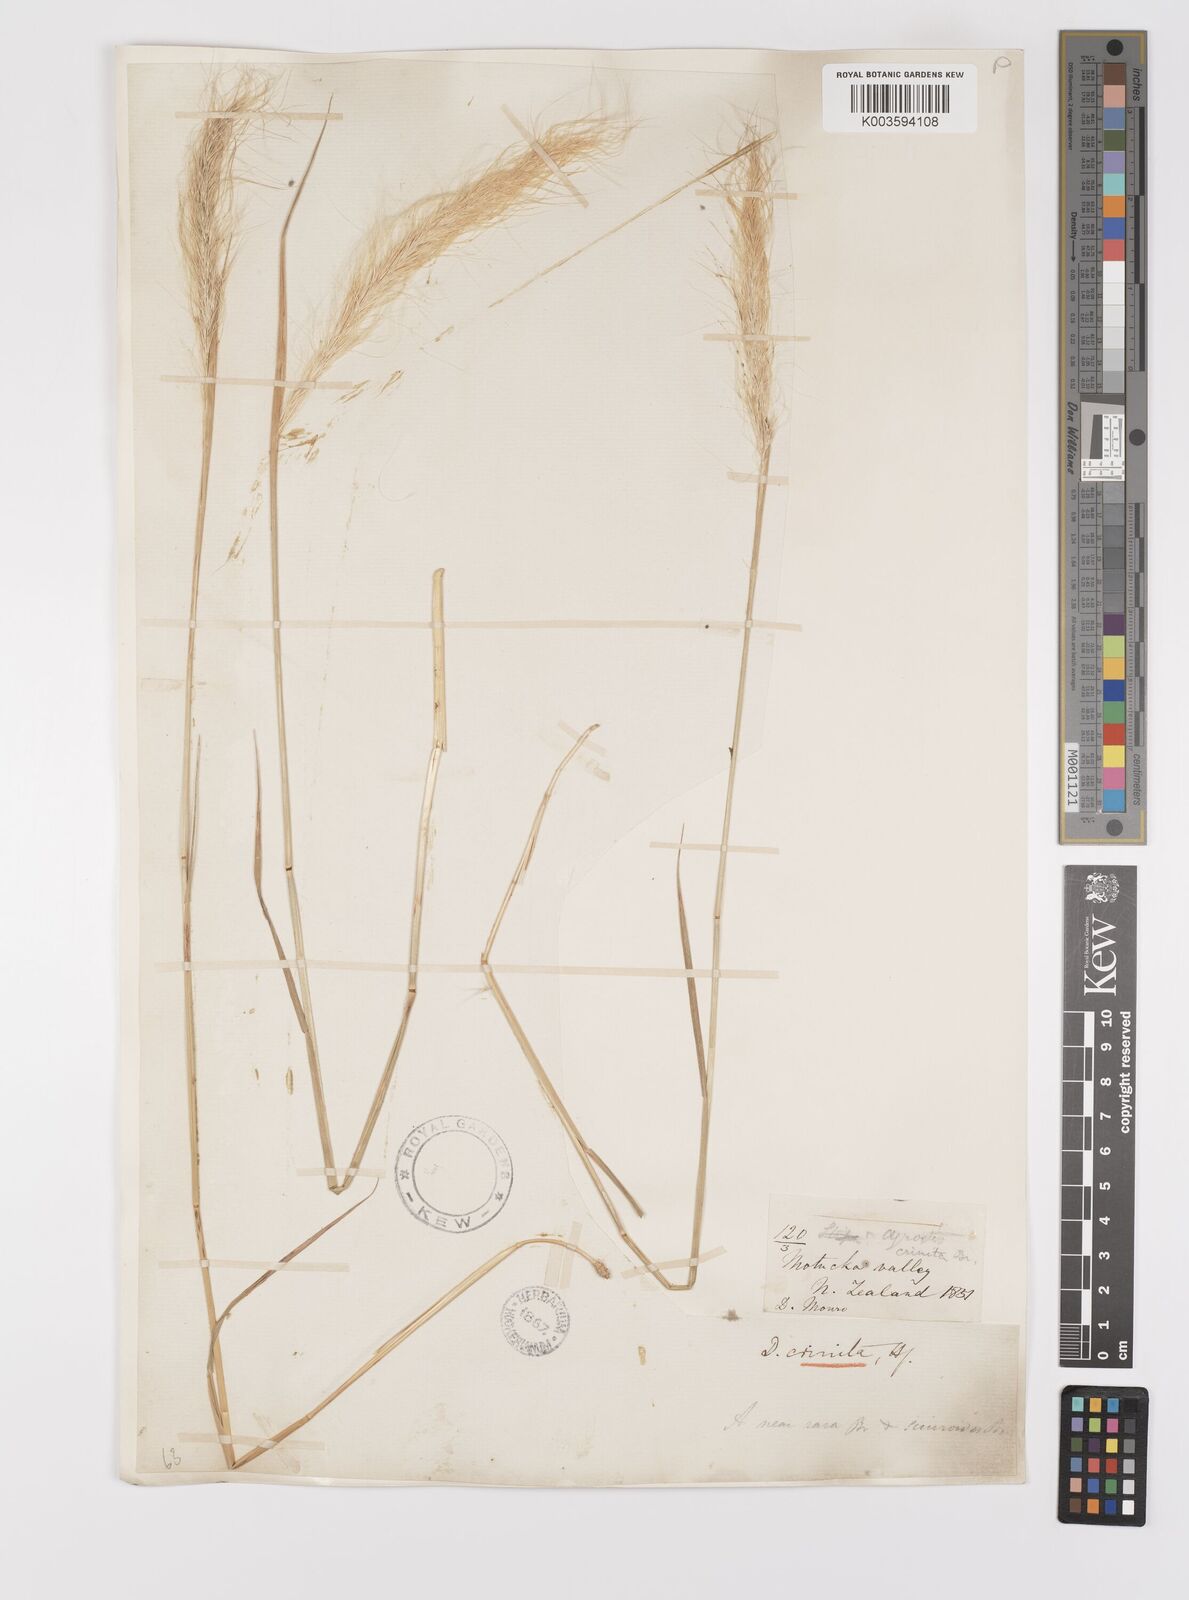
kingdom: Plantae
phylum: Tracheophyta
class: Liliopsida
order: Poales
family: Poaceae
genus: Dichelachne
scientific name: Dichelachne crinita
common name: Clovenfoot plumegrass
